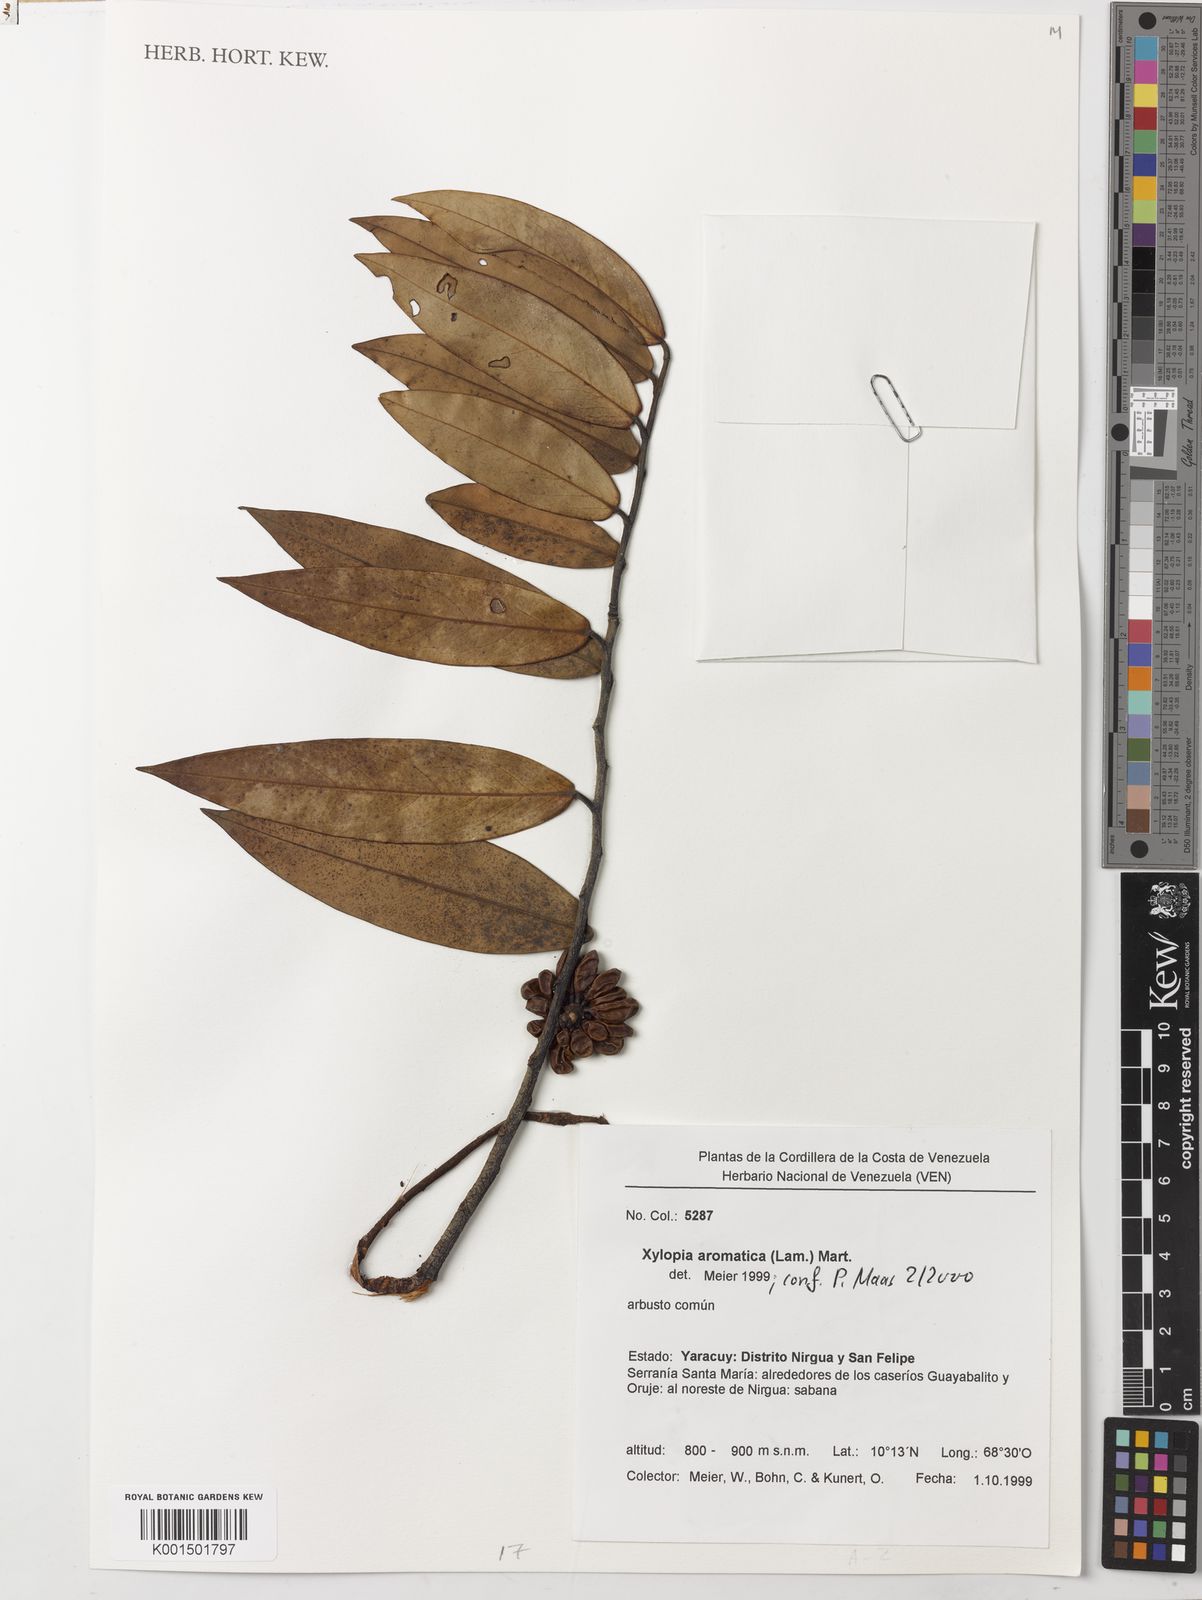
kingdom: Plantae
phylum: Tracheophyta
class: Magnoliopsida
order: Magnoliales
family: Annonaceae
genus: Xylopia
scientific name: Xylopia aromatica
